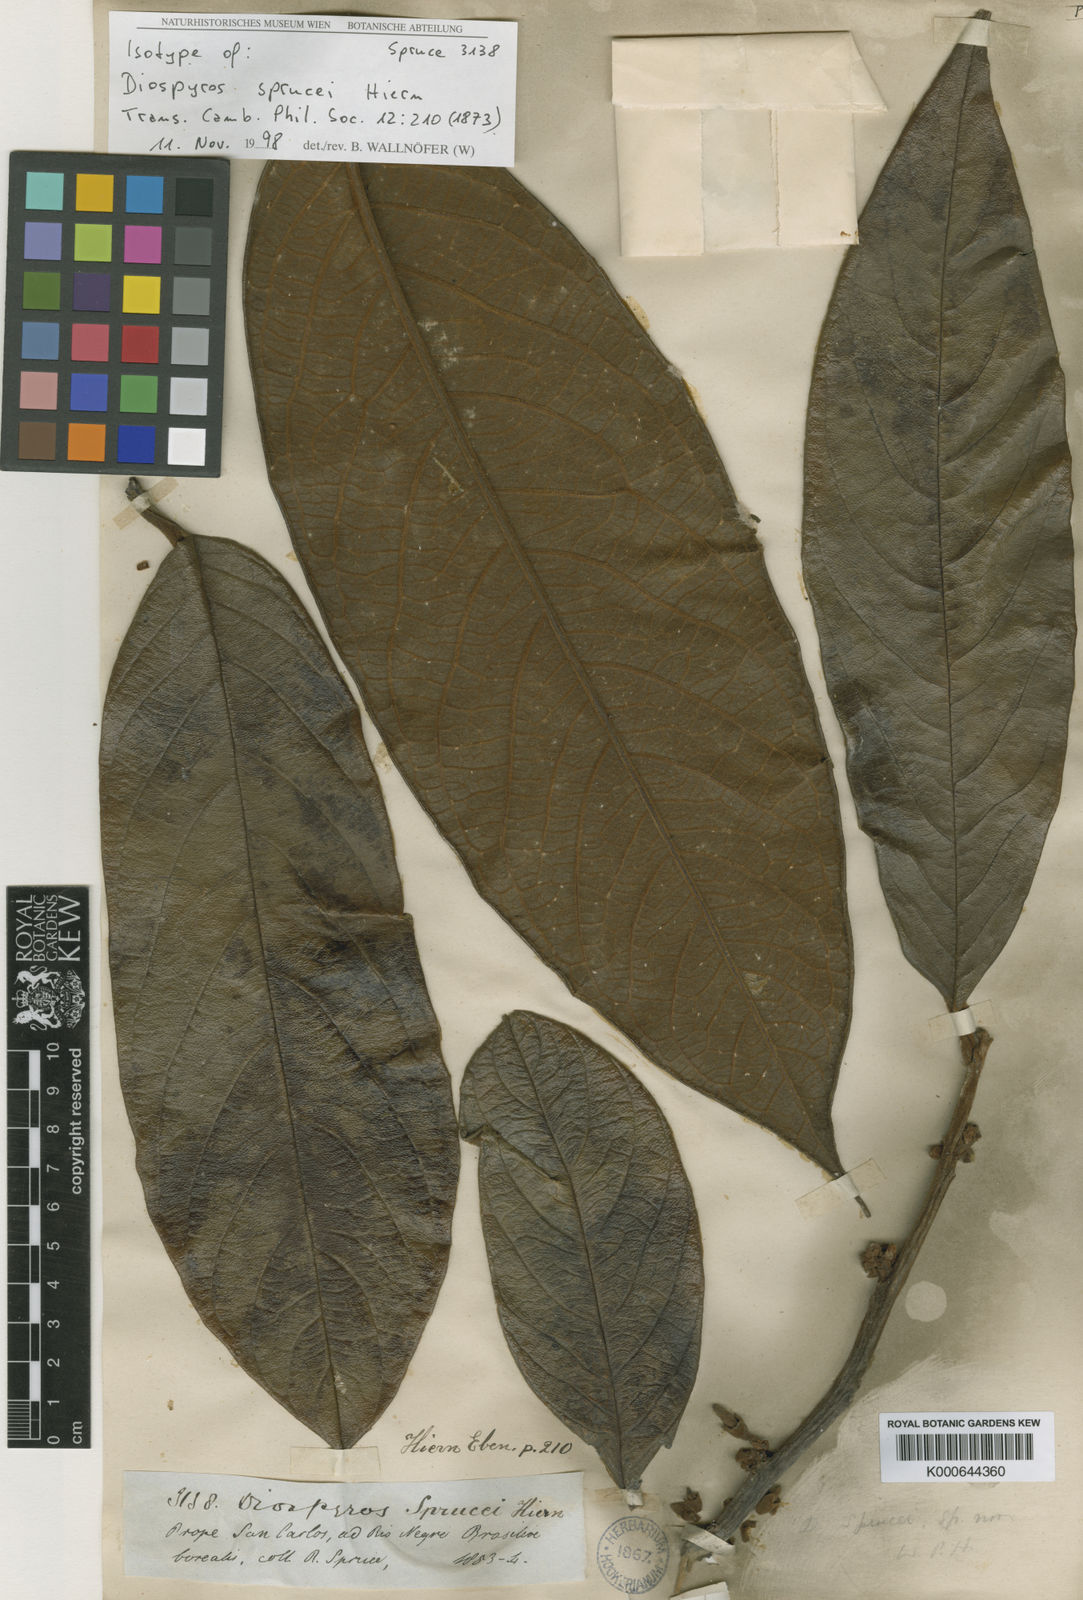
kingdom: Plantae
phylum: Tracheophyta
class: Magnoliopsida
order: Ericales
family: Ebenaceae
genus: Diospyros
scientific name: Diospyros sprucei
